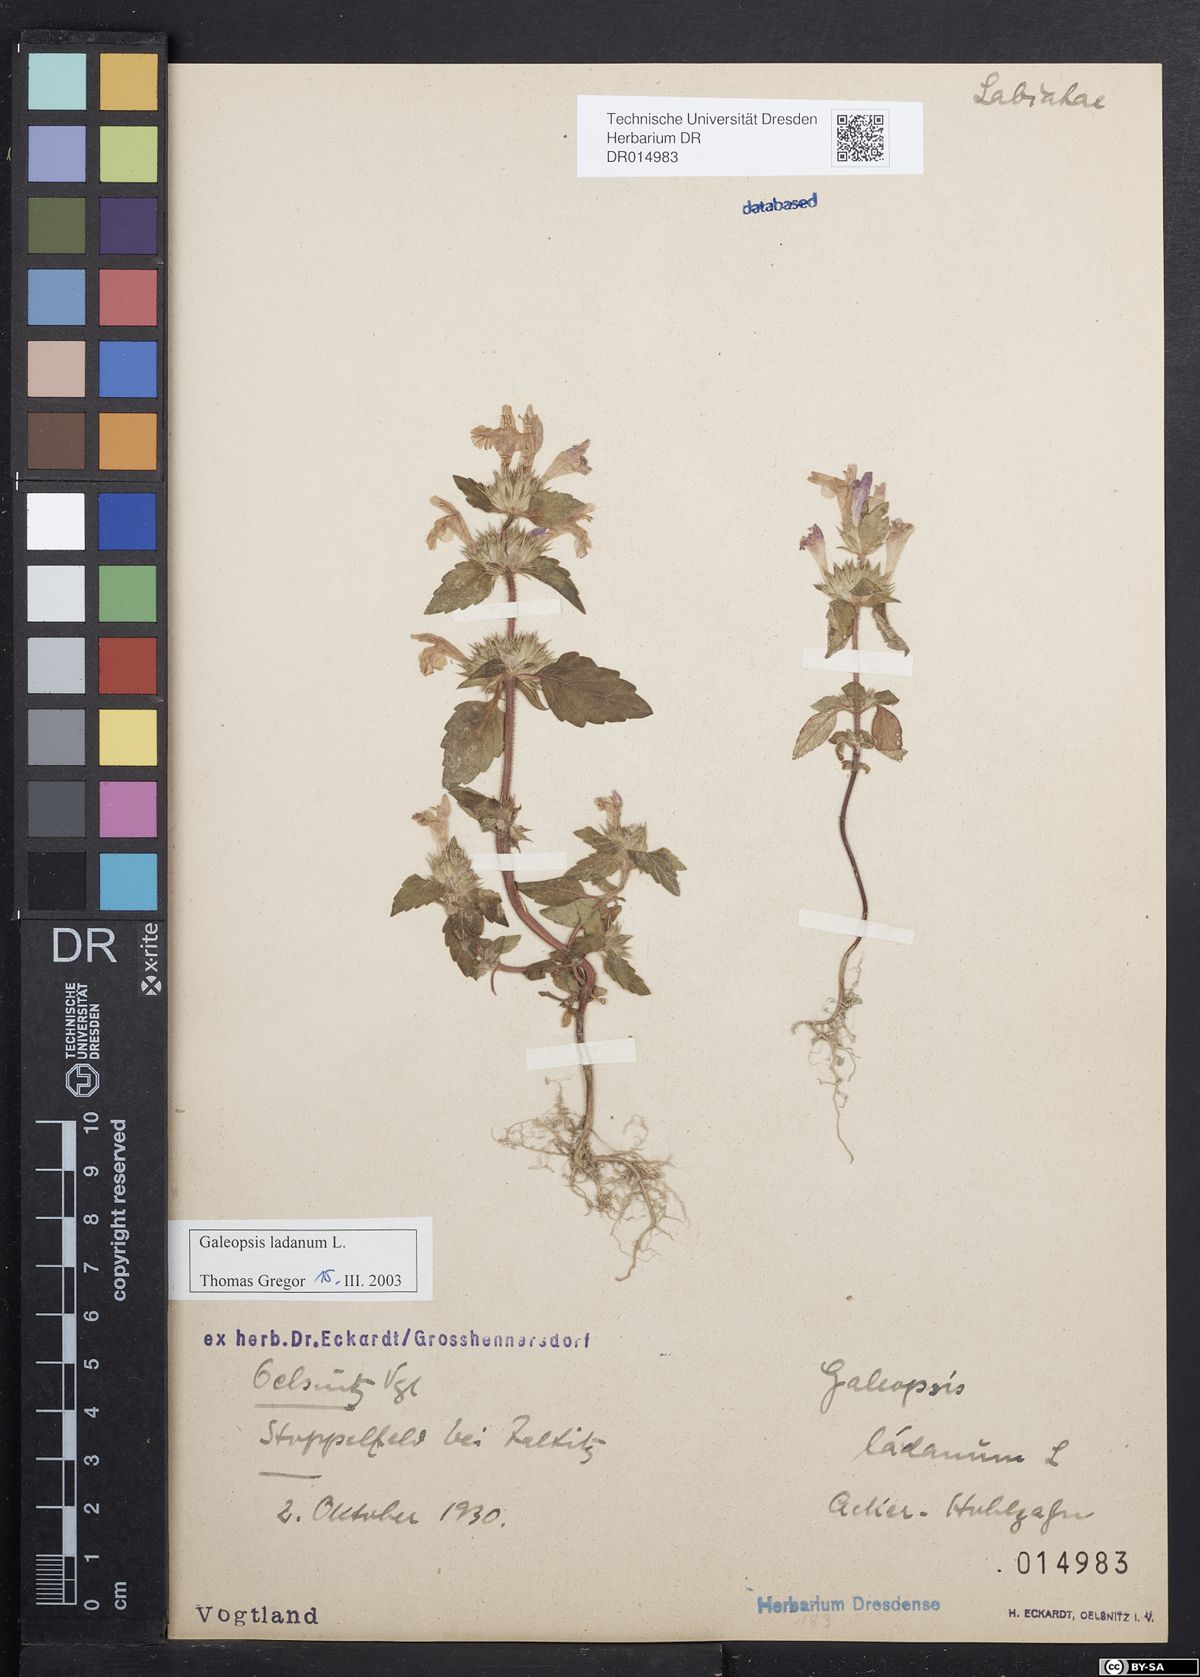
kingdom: Plantae
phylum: Tracheophyta
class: Magnoliopsida
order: Lamiales
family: Lamiaceae
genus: Galeopsis
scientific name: Galeopsis ladanum
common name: Broad-leaved hemp-nettle
